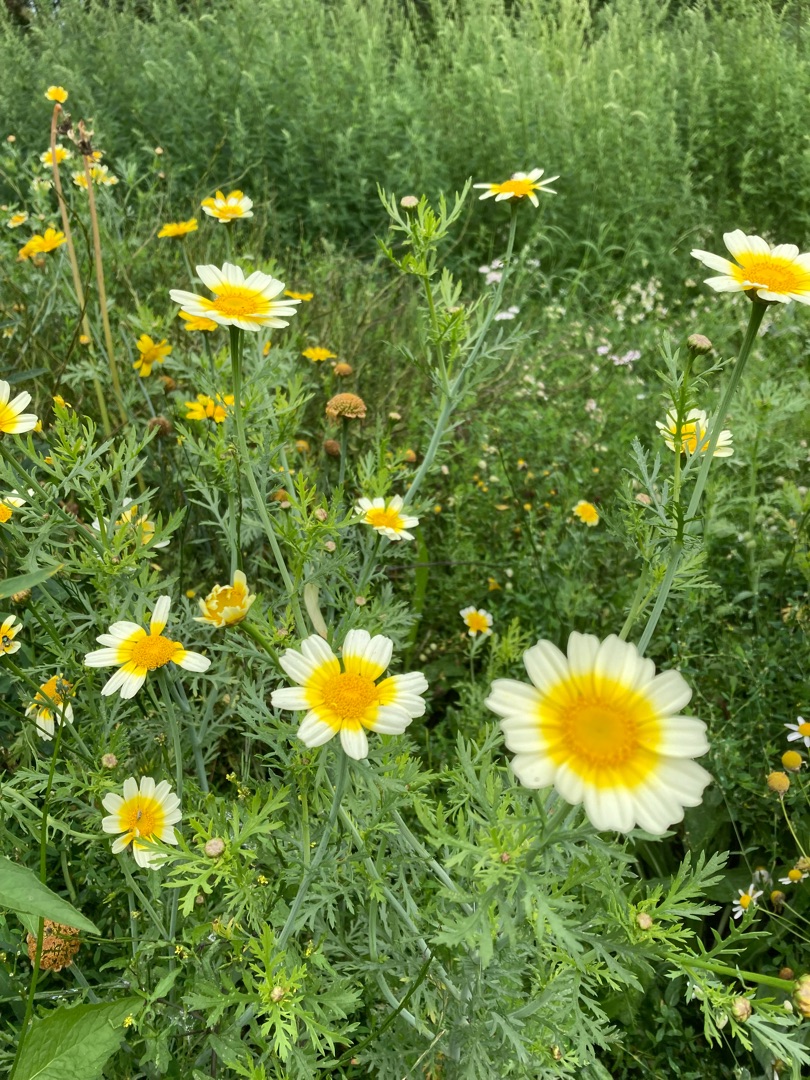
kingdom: Plantae
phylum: Tracheophyta
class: Magnoliopsida
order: Asterales
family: Asteraceae
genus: Glebionis
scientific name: Glebionis coronaria
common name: Kron-okseøje
